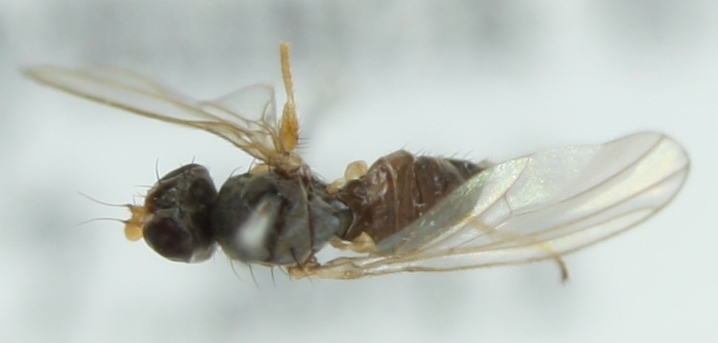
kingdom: Animalia
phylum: Arthropoda
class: Insecta
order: Diptera
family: Anthomyzidae
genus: Anthomyza
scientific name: Anthomyza gracilis
